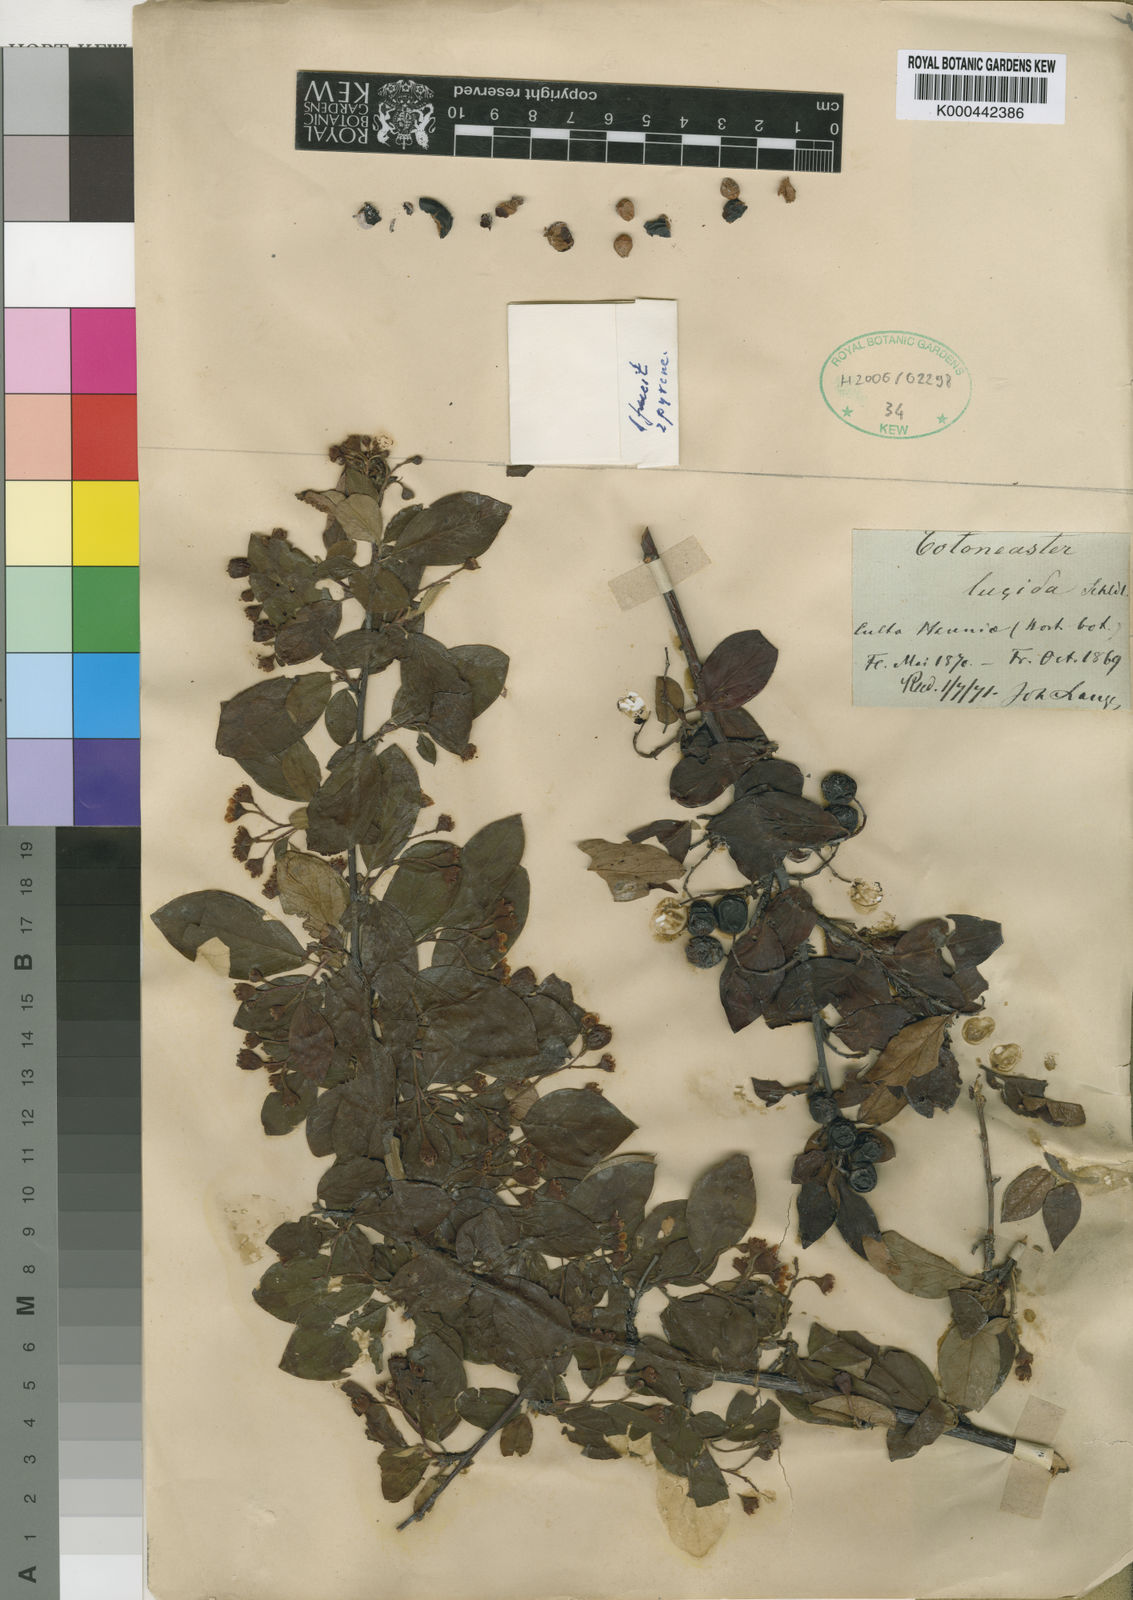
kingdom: Plantae
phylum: Tracheophyta
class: Magnoliopsida
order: Rosales
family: Rosaceae
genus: Cotoneaster
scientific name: Cotoneaster acutifolius
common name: Peking cotoneaster
